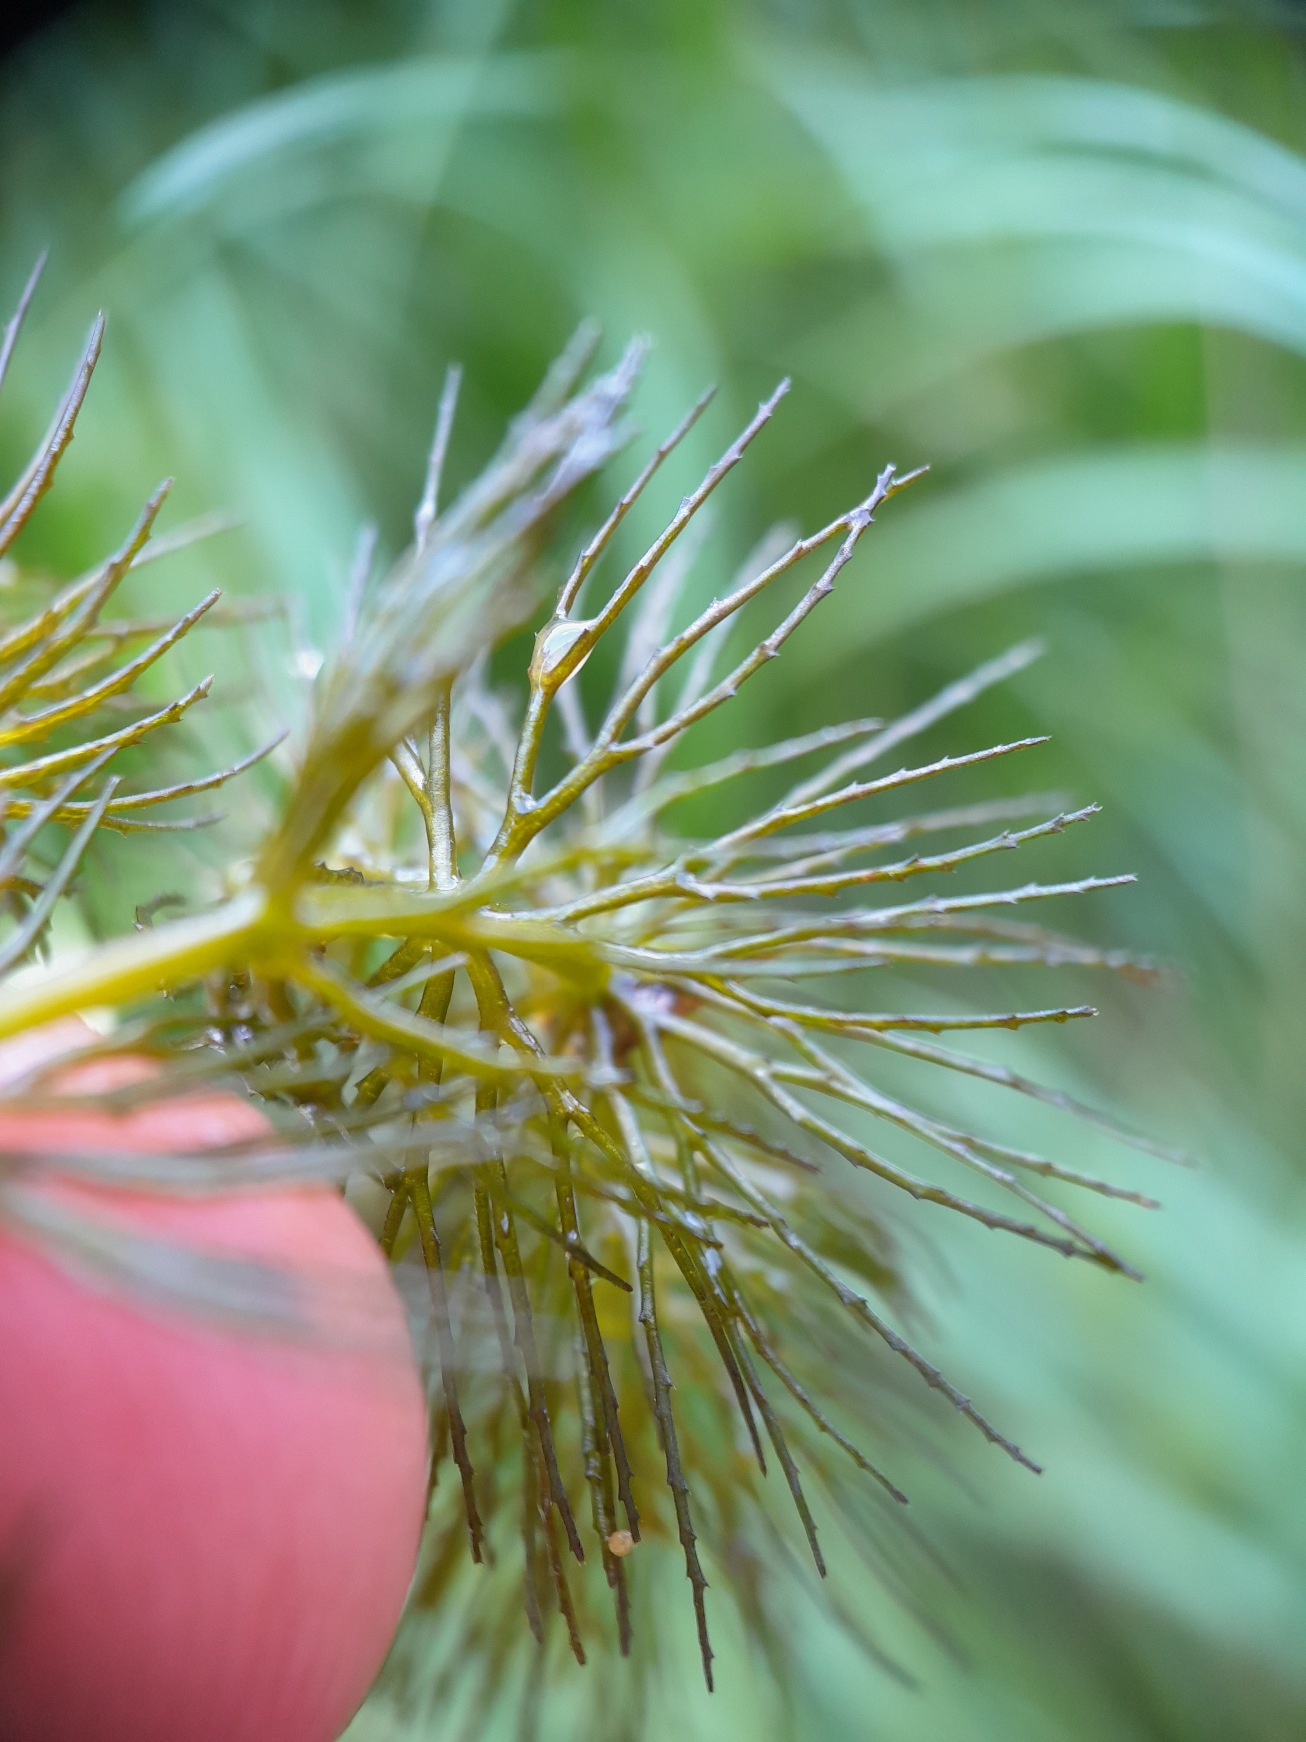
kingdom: Plantae
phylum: Tracheophyta
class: Magnoliopsida
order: Ceratophyllales
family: Ceratophyllaceae
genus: Ceratophyllum
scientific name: Ceratophyllum demersum
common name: Tornfrøet hornblad
